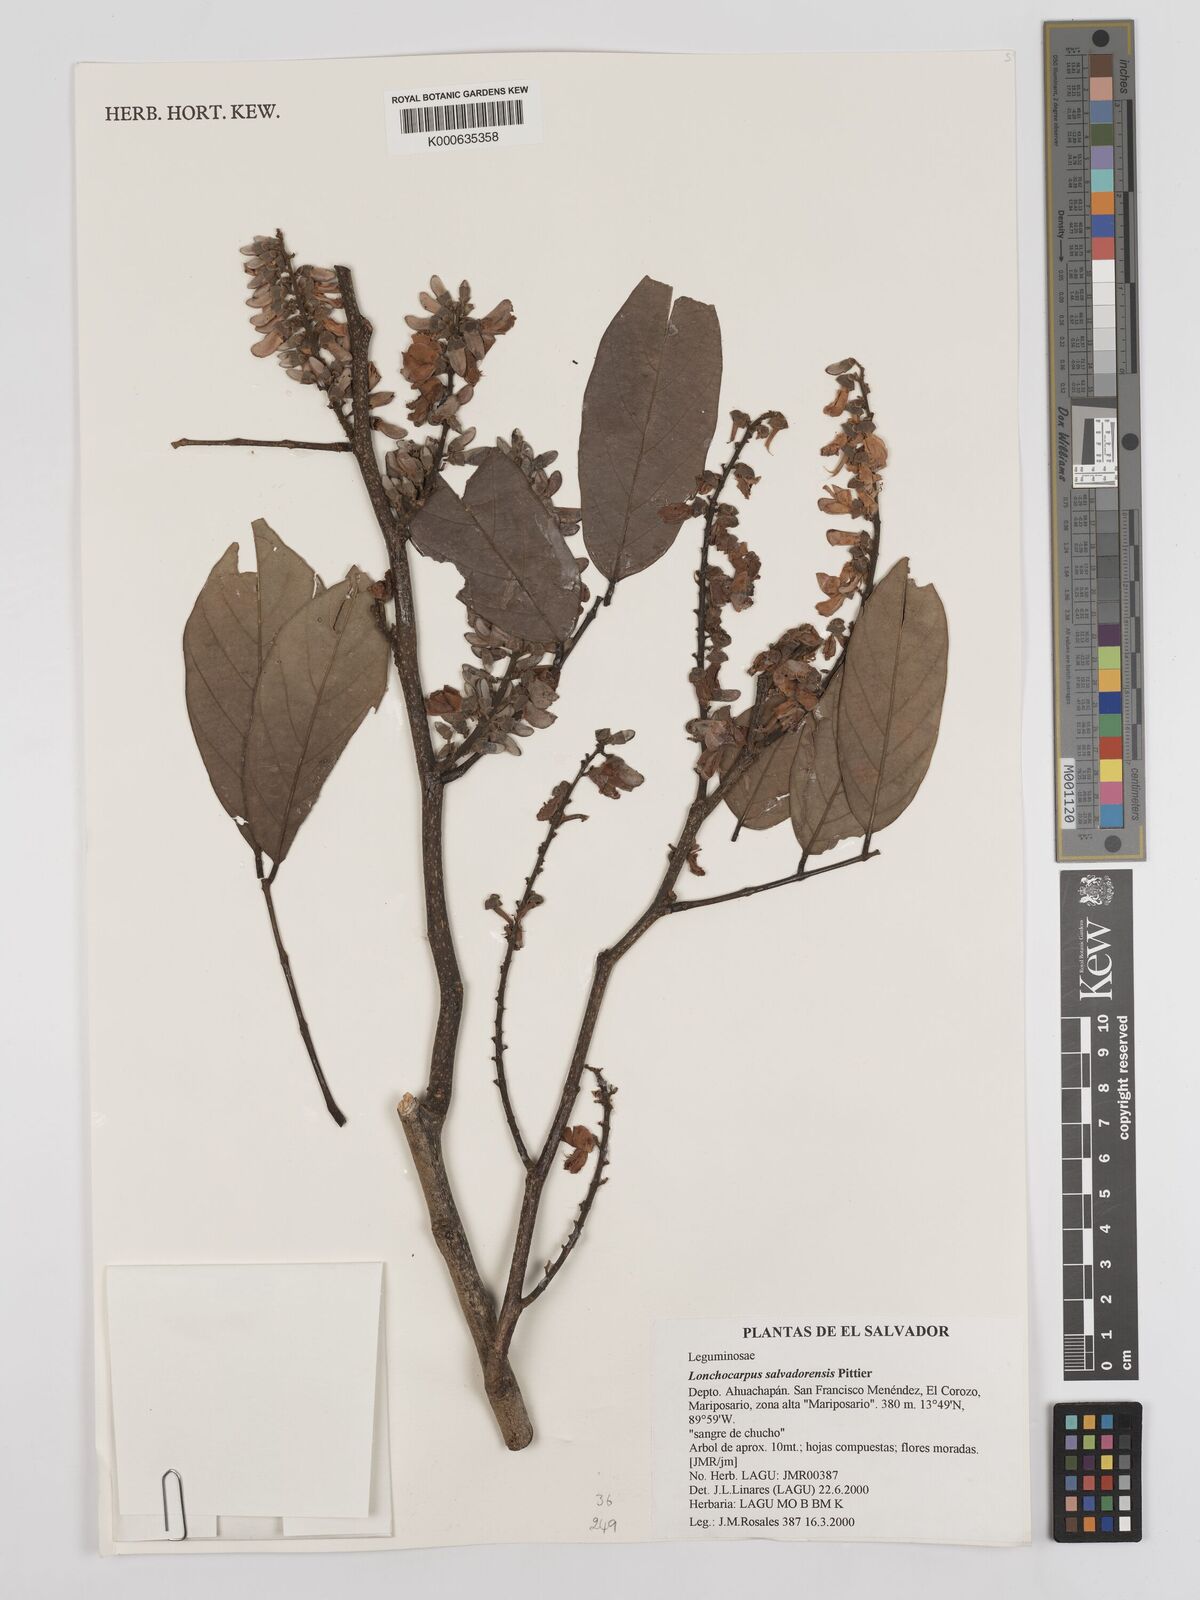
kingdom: Plantae
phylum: Tracheophyta
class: Magnoliopsida
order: Fabales
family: Fabaceae
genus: Lonchocarpus
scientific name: Lonchocarpus salvadorensis
